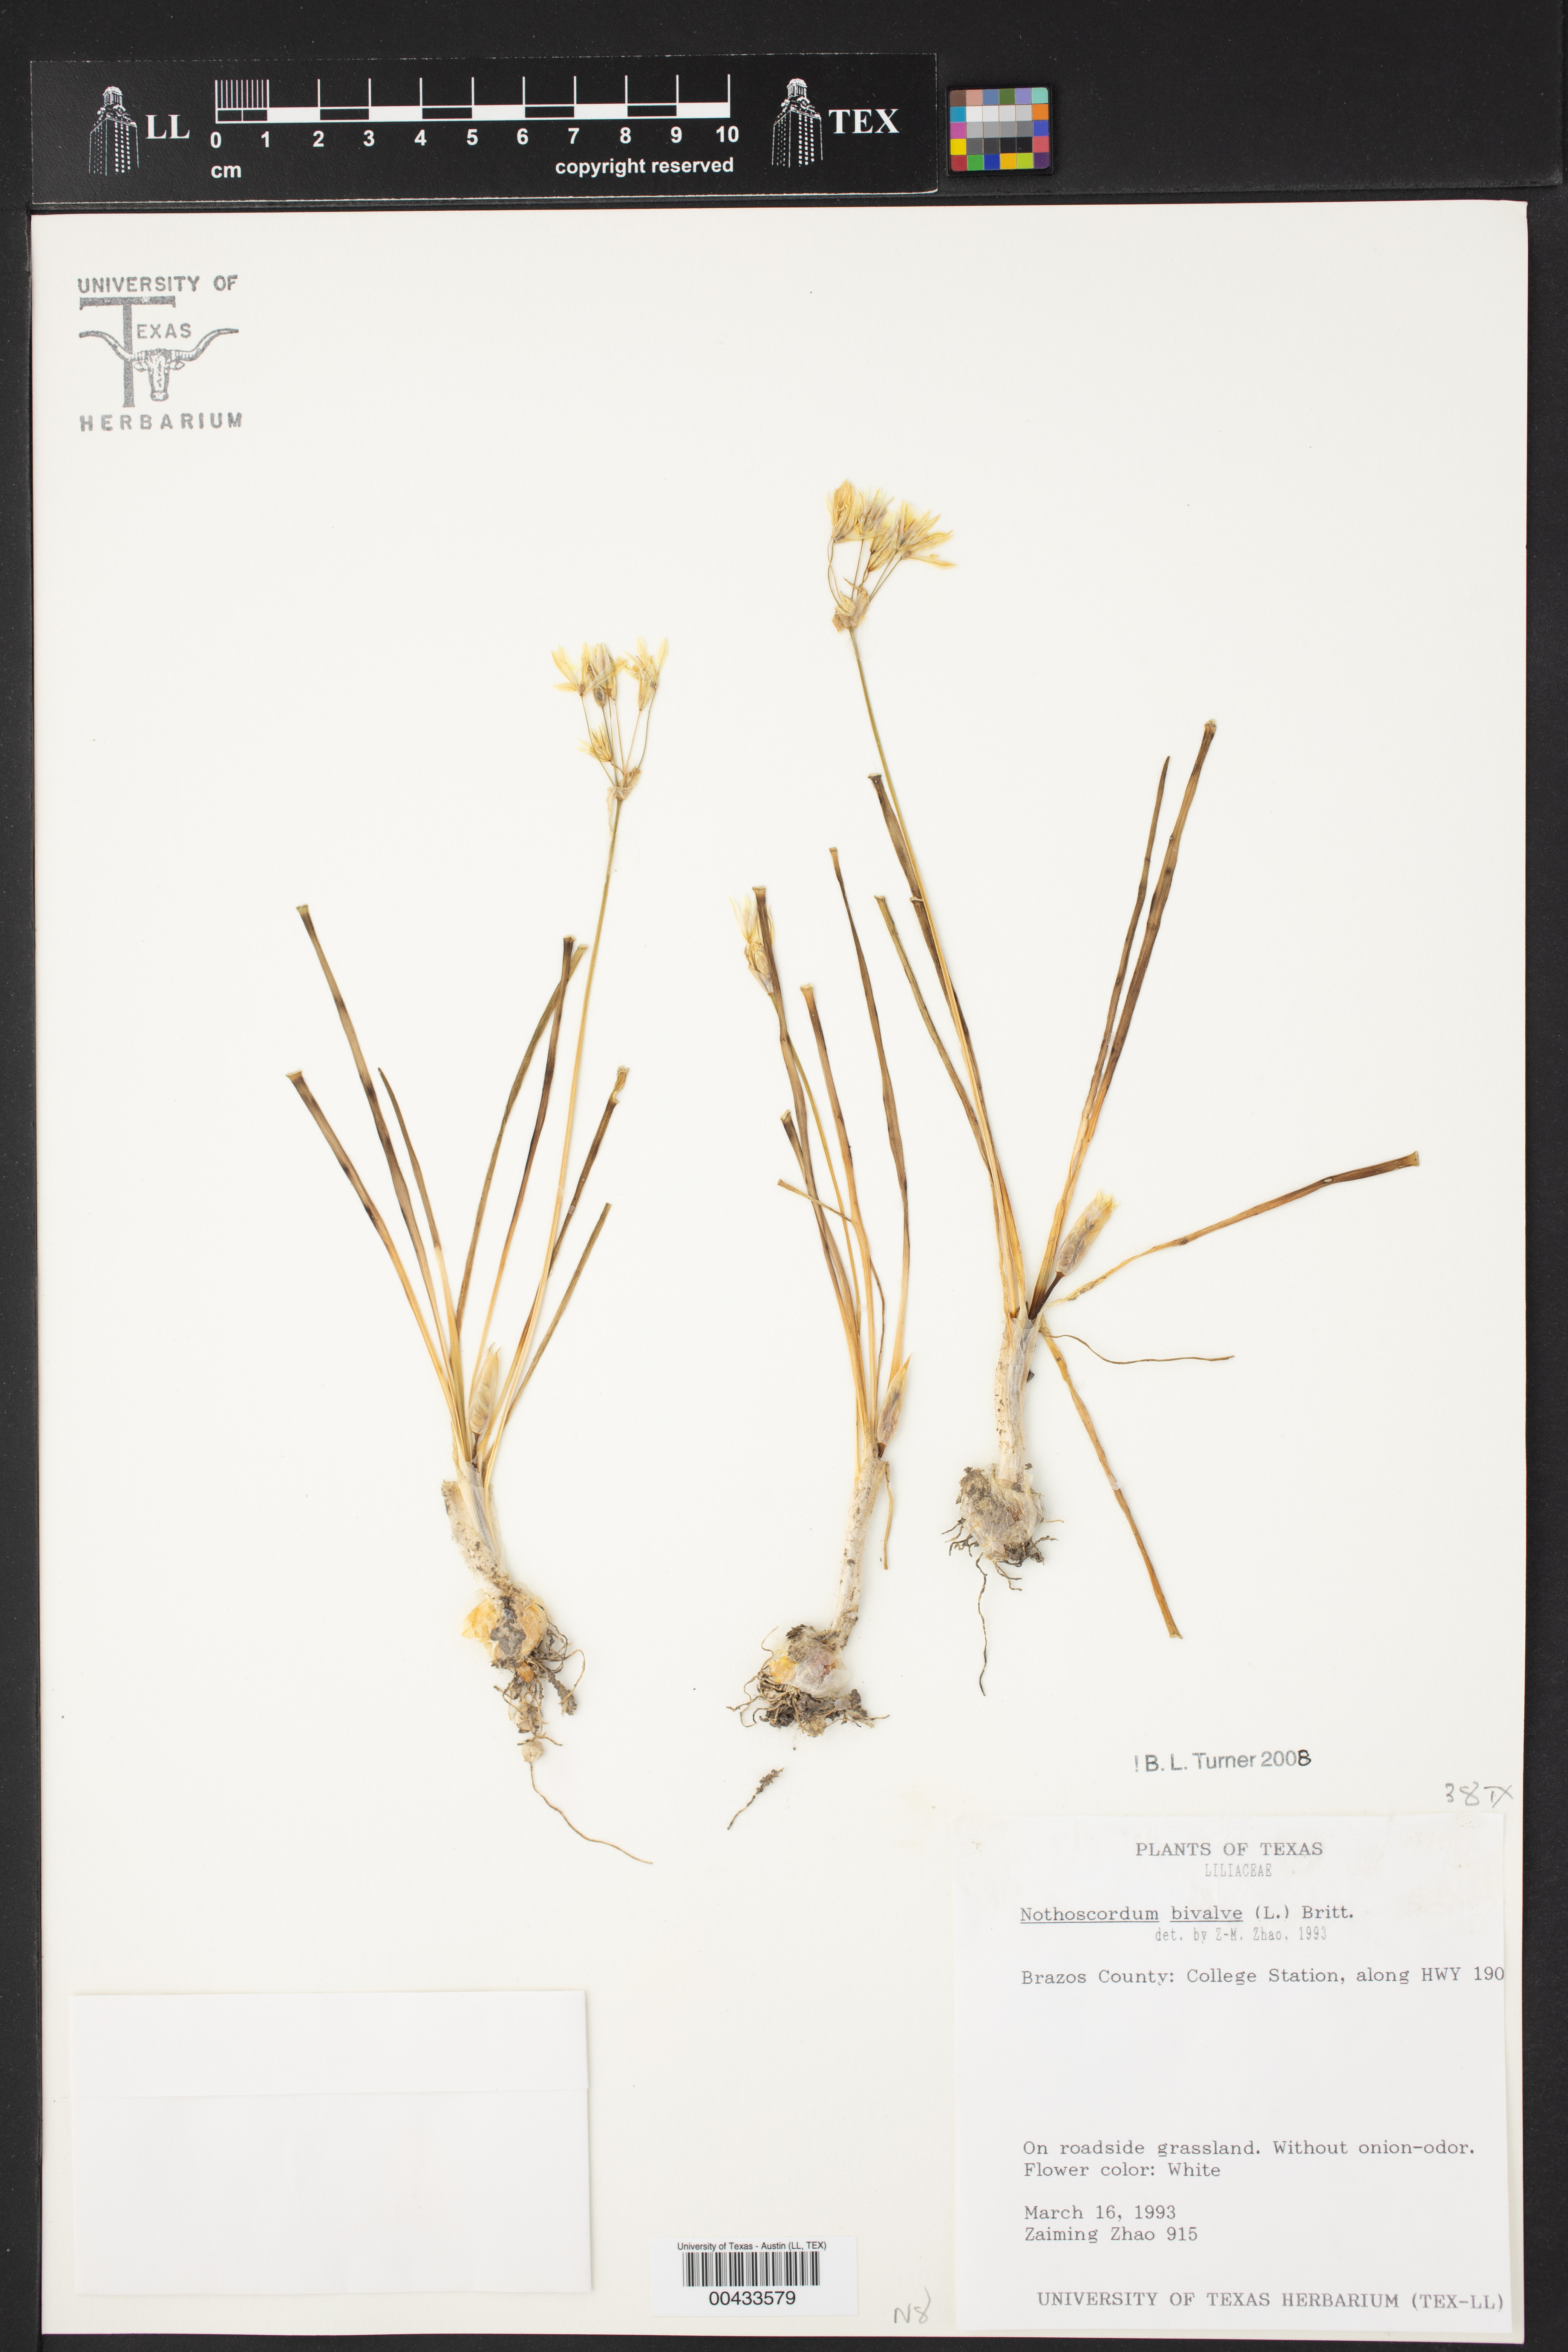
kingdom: Plantae
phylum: Tracheophyta
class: Liliopsida
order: Asparagales
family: Amaryllidaceae
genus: Nothoscordum
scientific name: Nothoscordum bivalve
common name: Crow-poison
